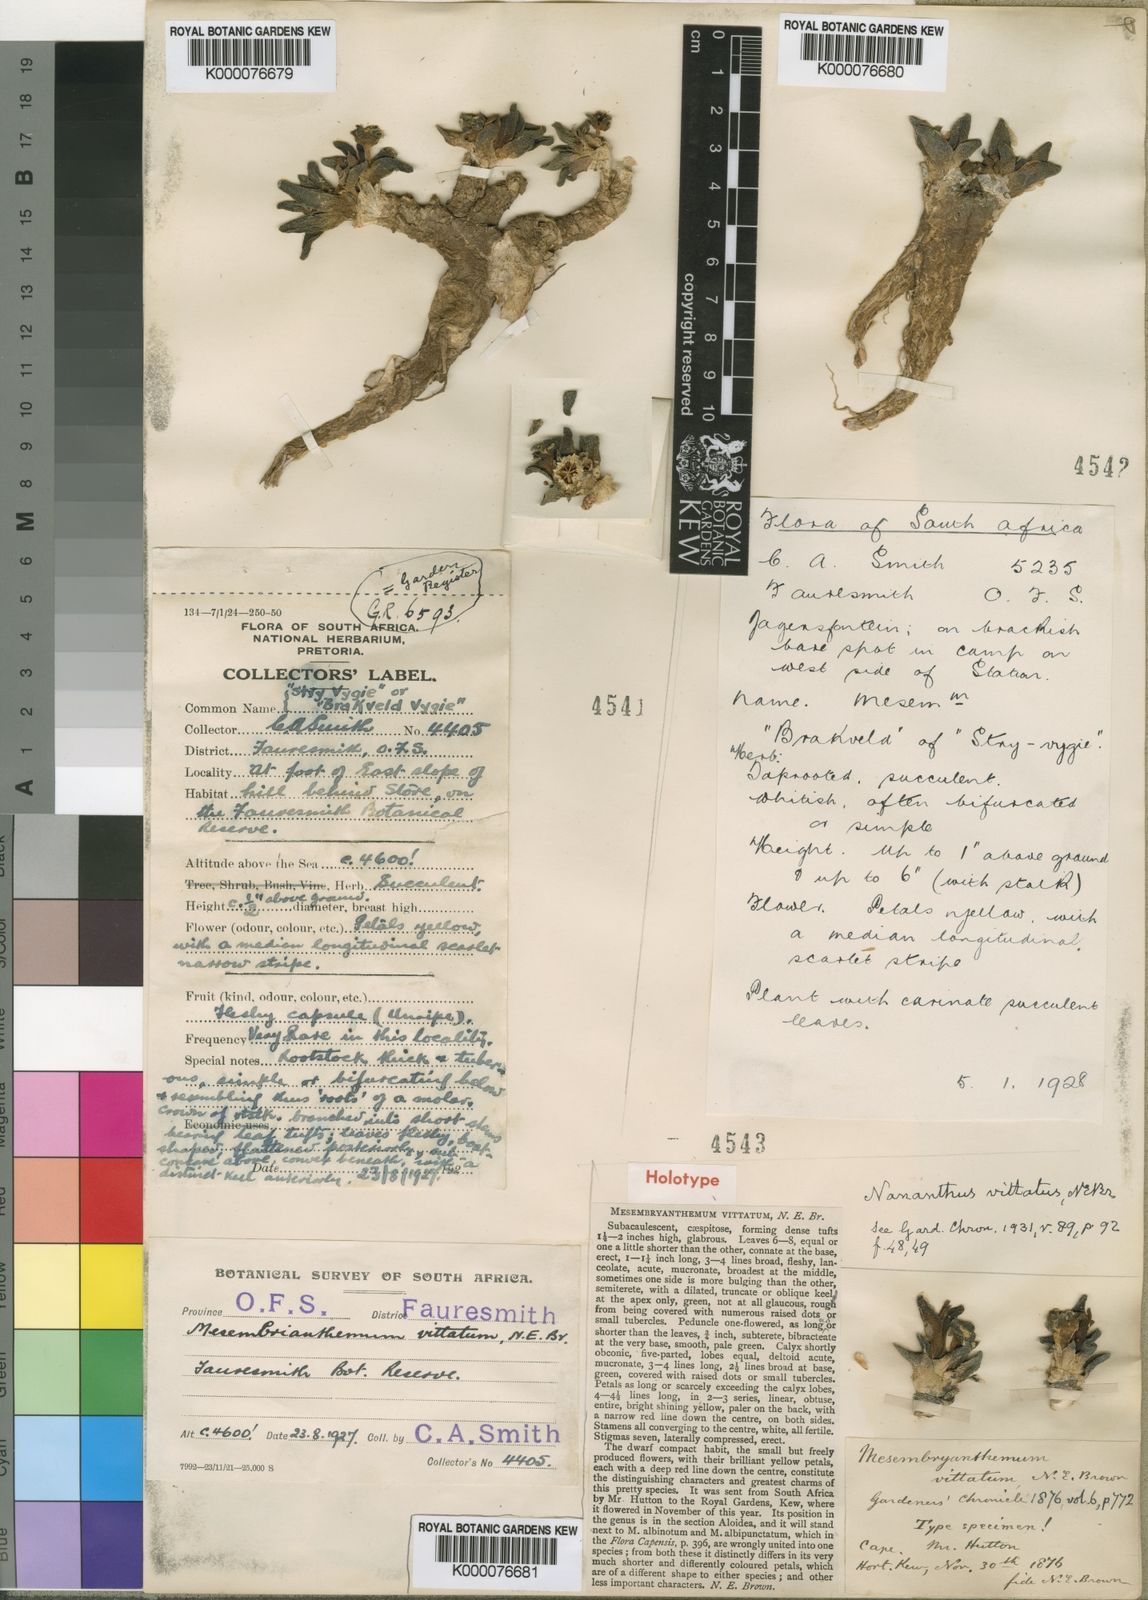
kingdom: Plantae
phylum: Tracheophyta
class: Magnoliopsida
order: Caryophyllales
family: Aizoaceae
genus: Nananthus
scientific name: Nananthus vittatus
